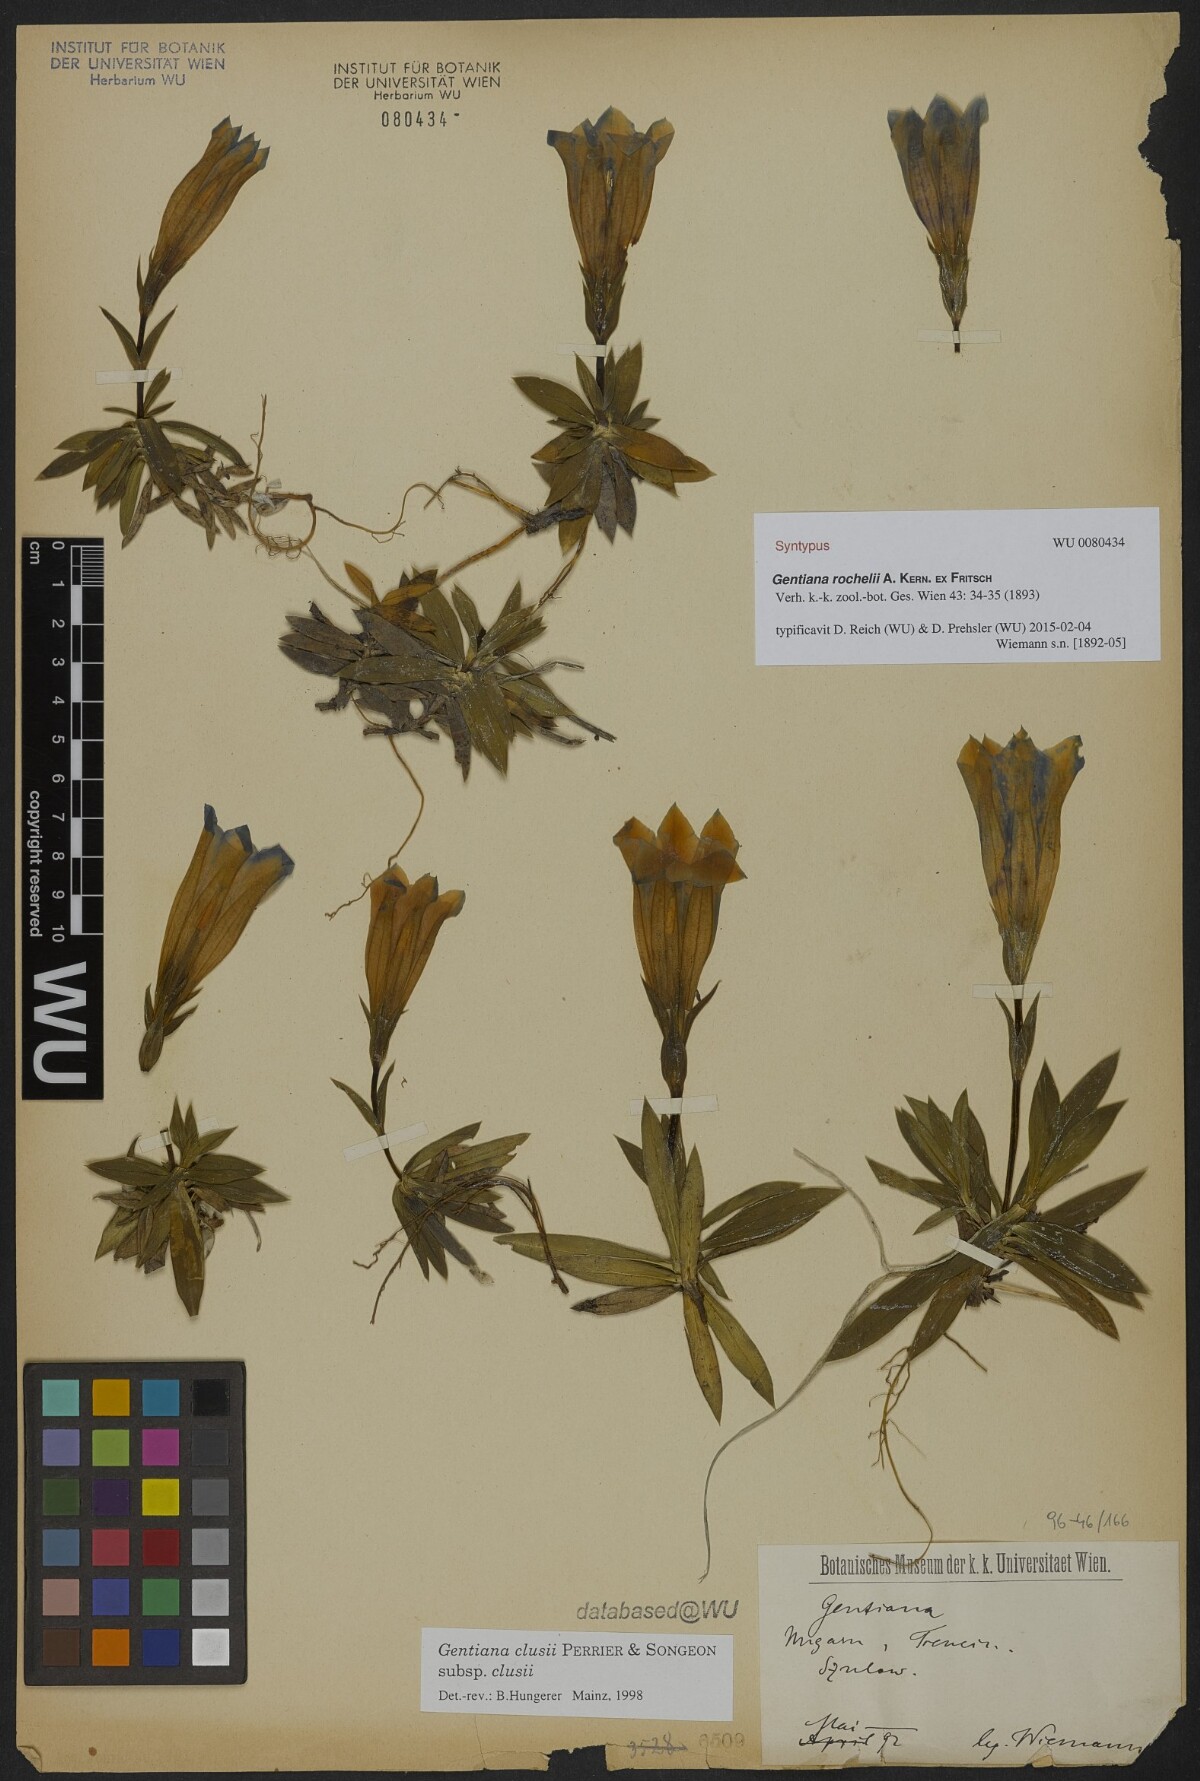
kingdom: Plantae
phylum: Tracheophyta
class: Magnoliopsida
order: Gentianales
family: Gentianaceae
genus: Gentiana
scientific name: Gentiana clusii
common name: Trumpet gentian
